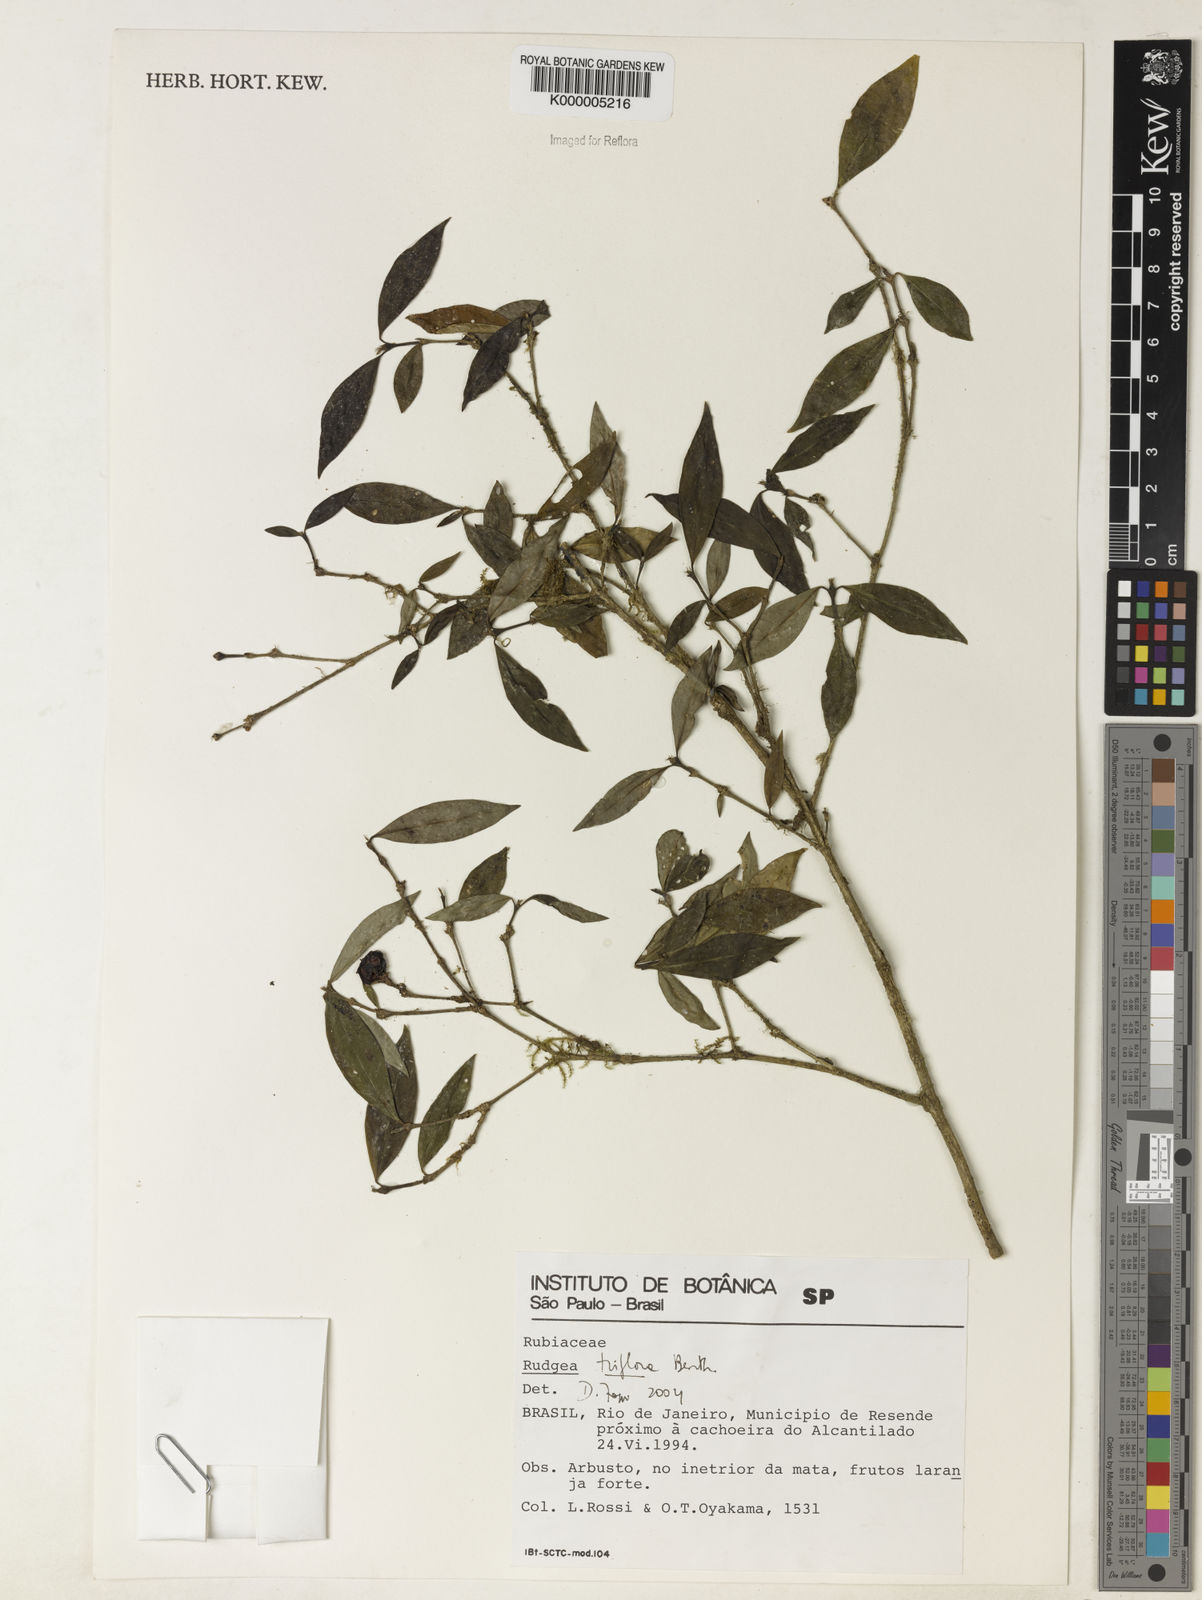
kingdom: Plantae
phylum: Tracheophyta
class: Magnoliopsida
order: Gentianales
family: Rubiaceae
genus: Rudgea
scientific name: Rudgea triflora
